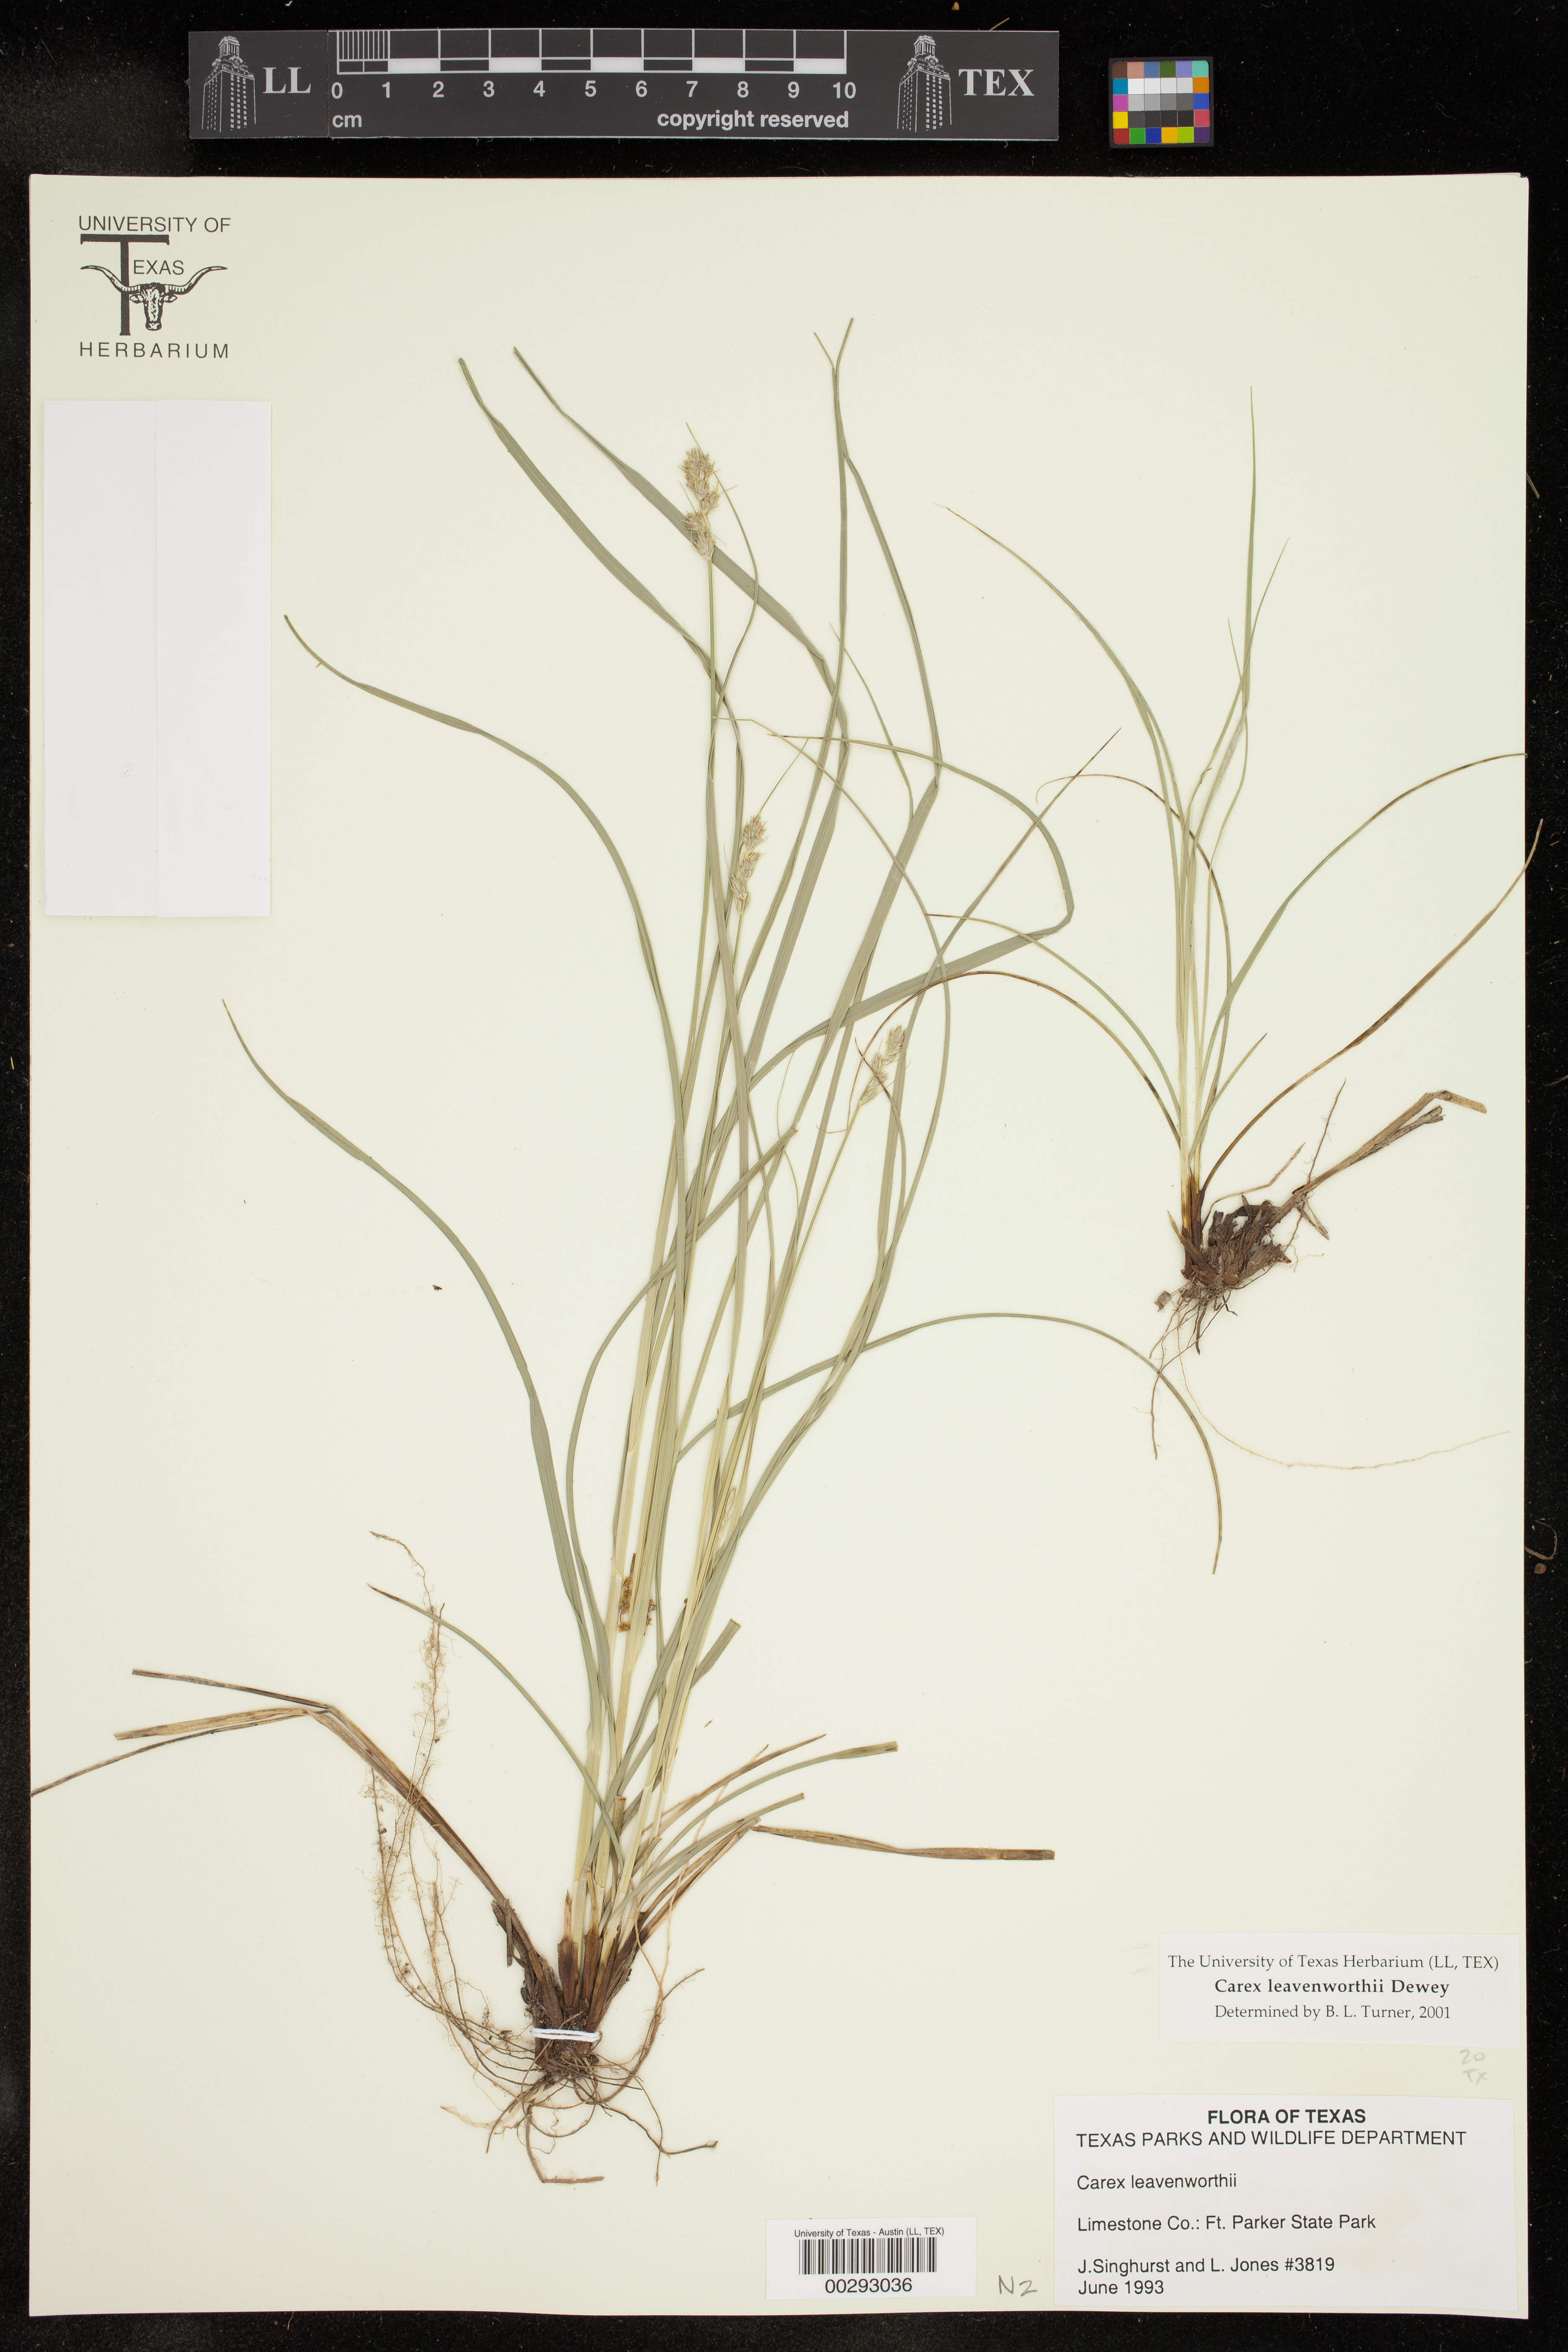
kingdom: Plantae
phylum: Tracheophyta
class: Liliopsida
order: Poales
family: Cyperaceae
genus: Carex
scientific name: Carex leavenworthii
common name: Leavenworth's bracted sedge
